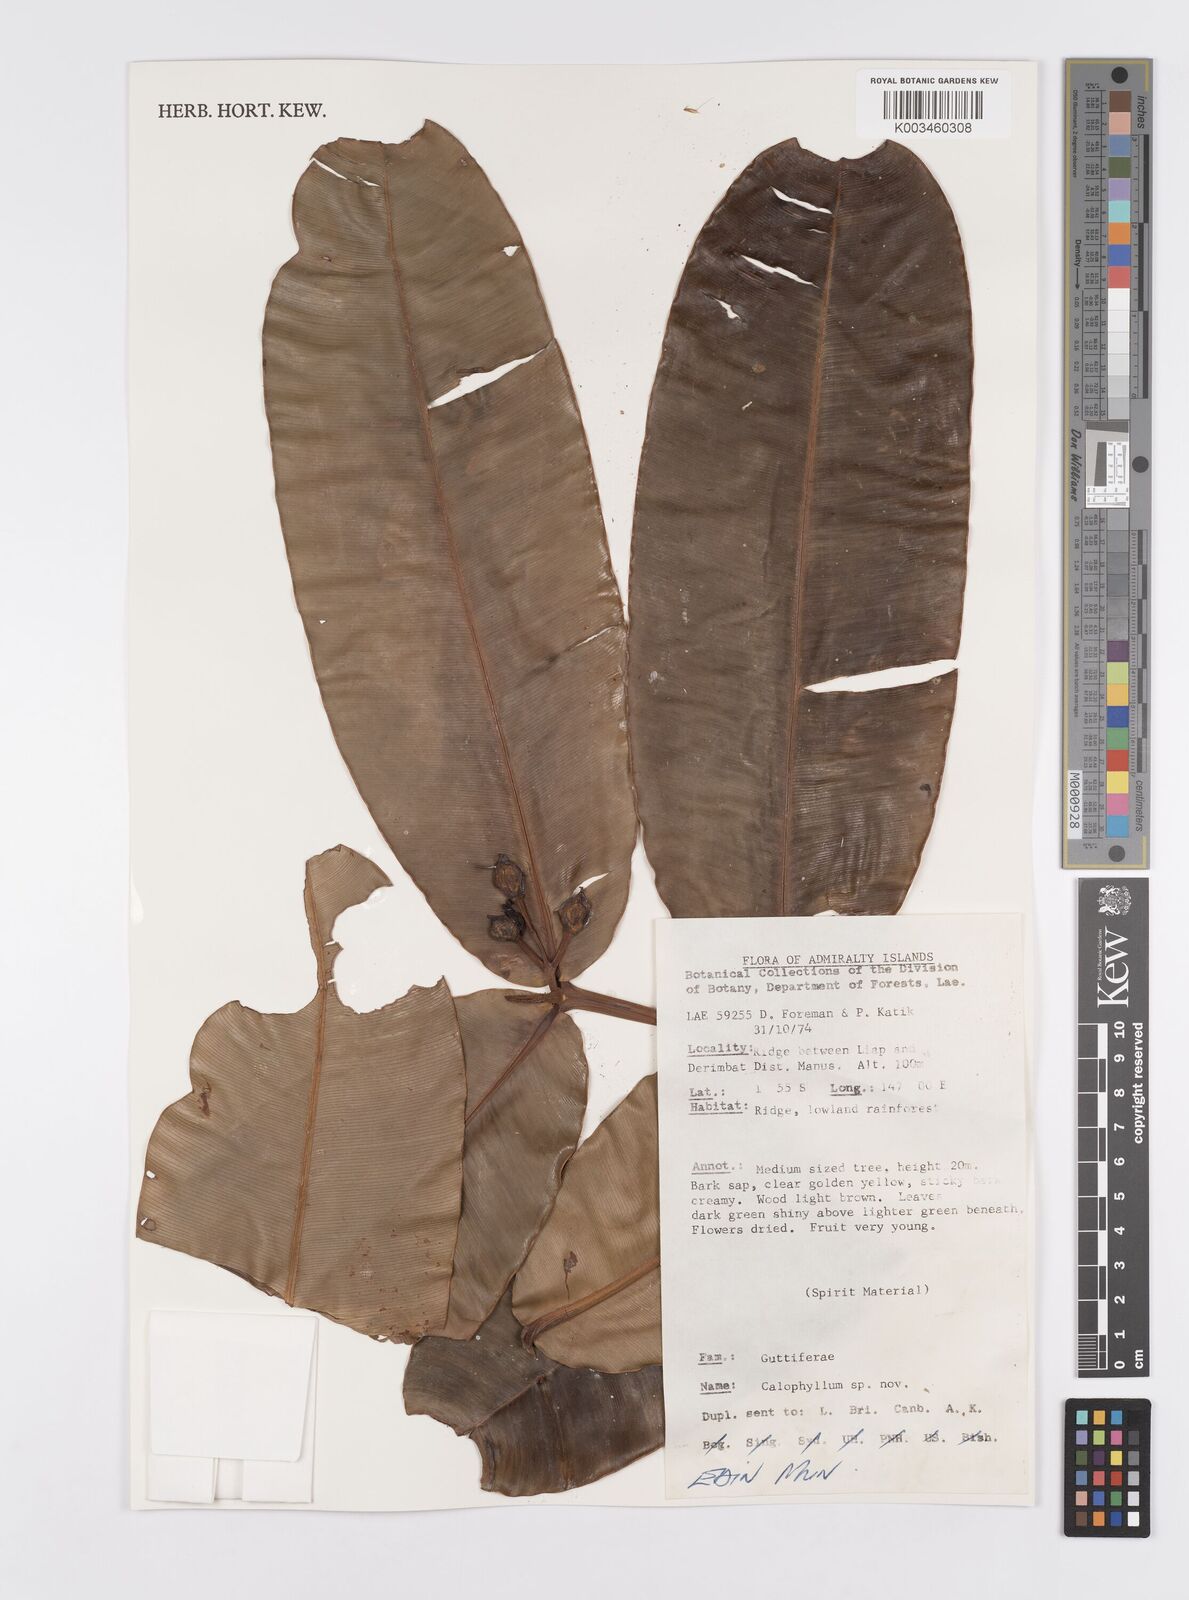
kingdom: Plantae
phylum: Tracheophyta
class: Magnoliopsida
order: Malpighiales
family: Calophyllaceae
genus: Calophyllum
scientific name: Calophyllum
